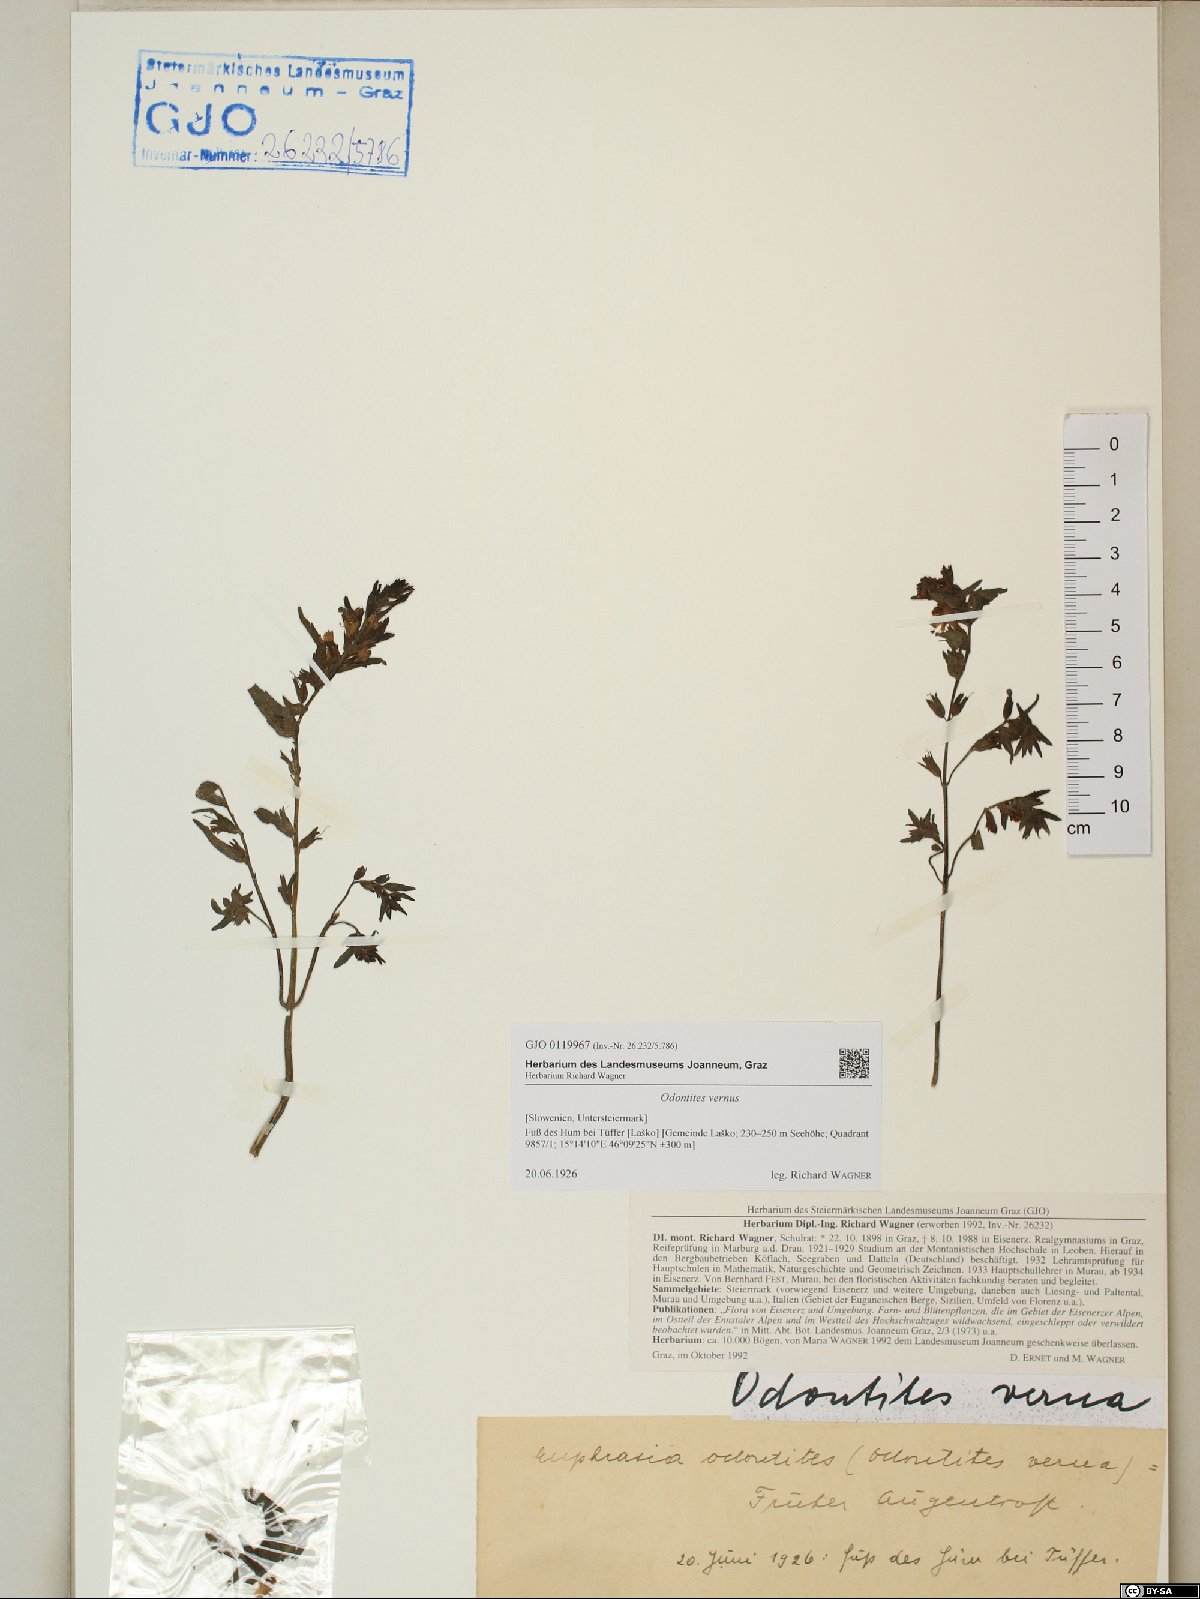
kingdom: Plantae
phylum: Tracheophyta
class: Magnoliopsida
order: Lamiales
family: Orobanchaceae
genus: Odontites
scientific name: Odontites vernus
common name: Red bartsia
